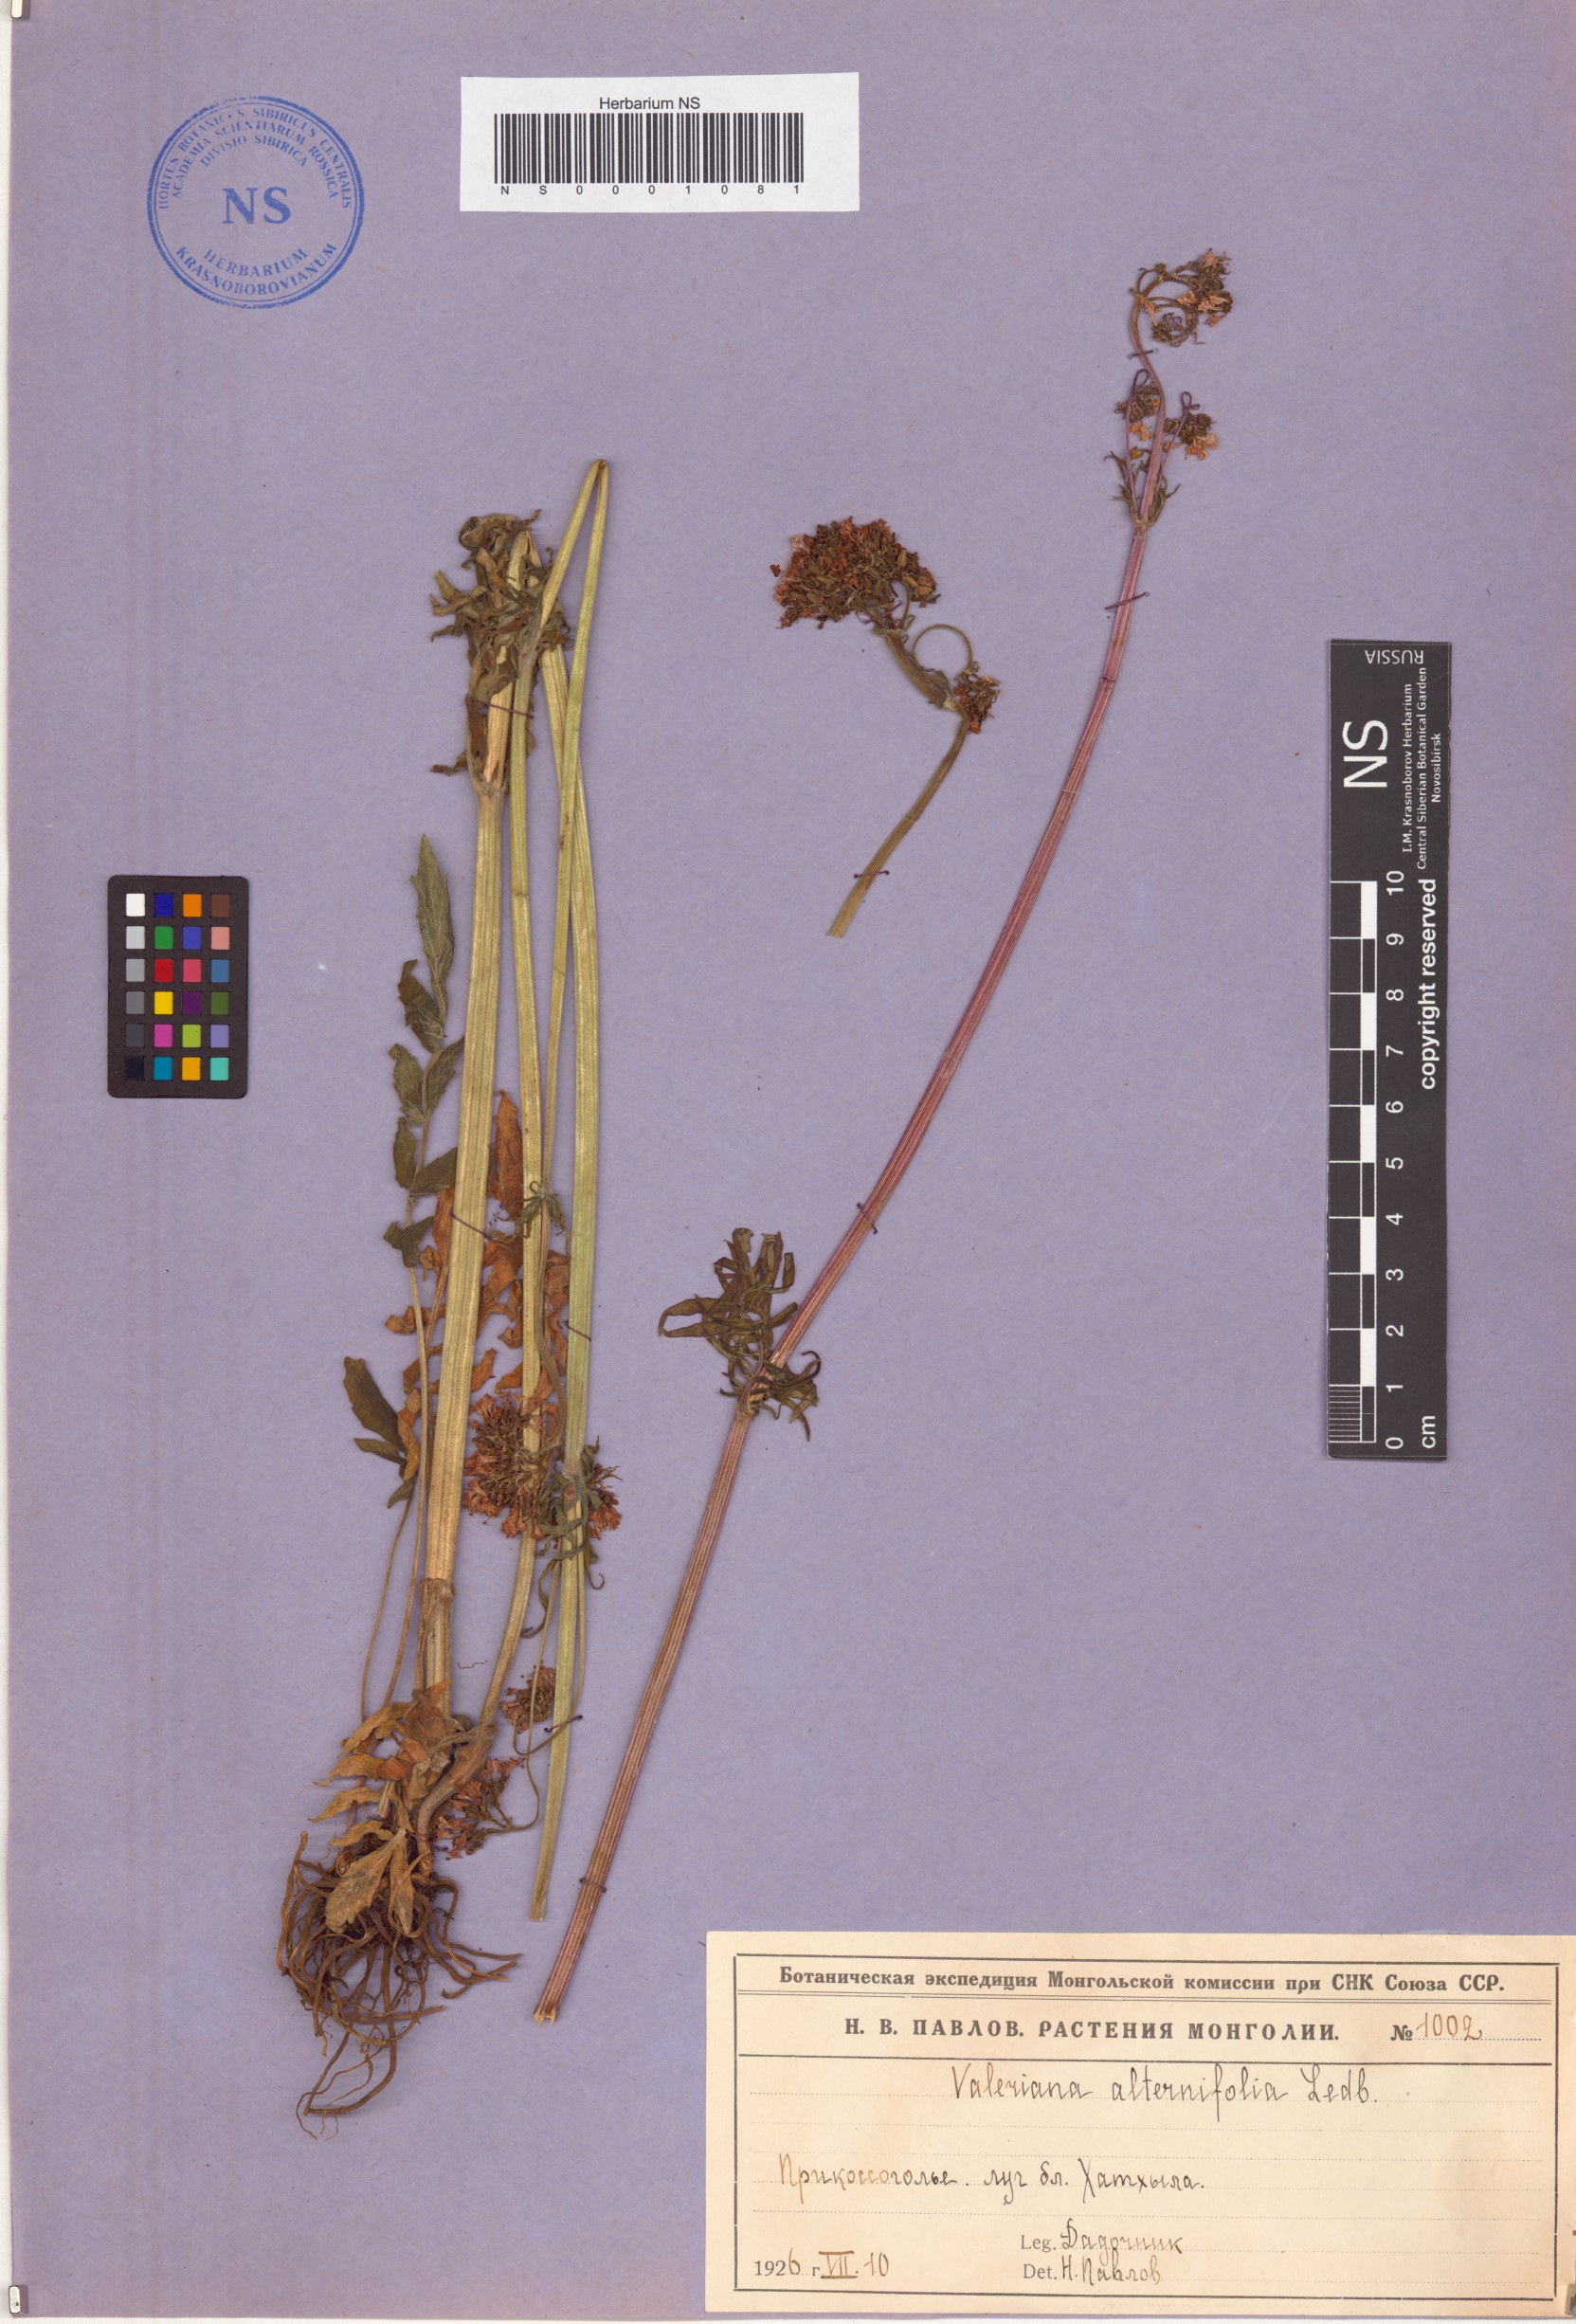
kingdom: Plantae
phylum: Tracheophyta
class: Magnoliopsida
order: Dipsacales
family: Caprifoliaceae
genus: Valeriana
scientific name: Valeriana alternifolia
